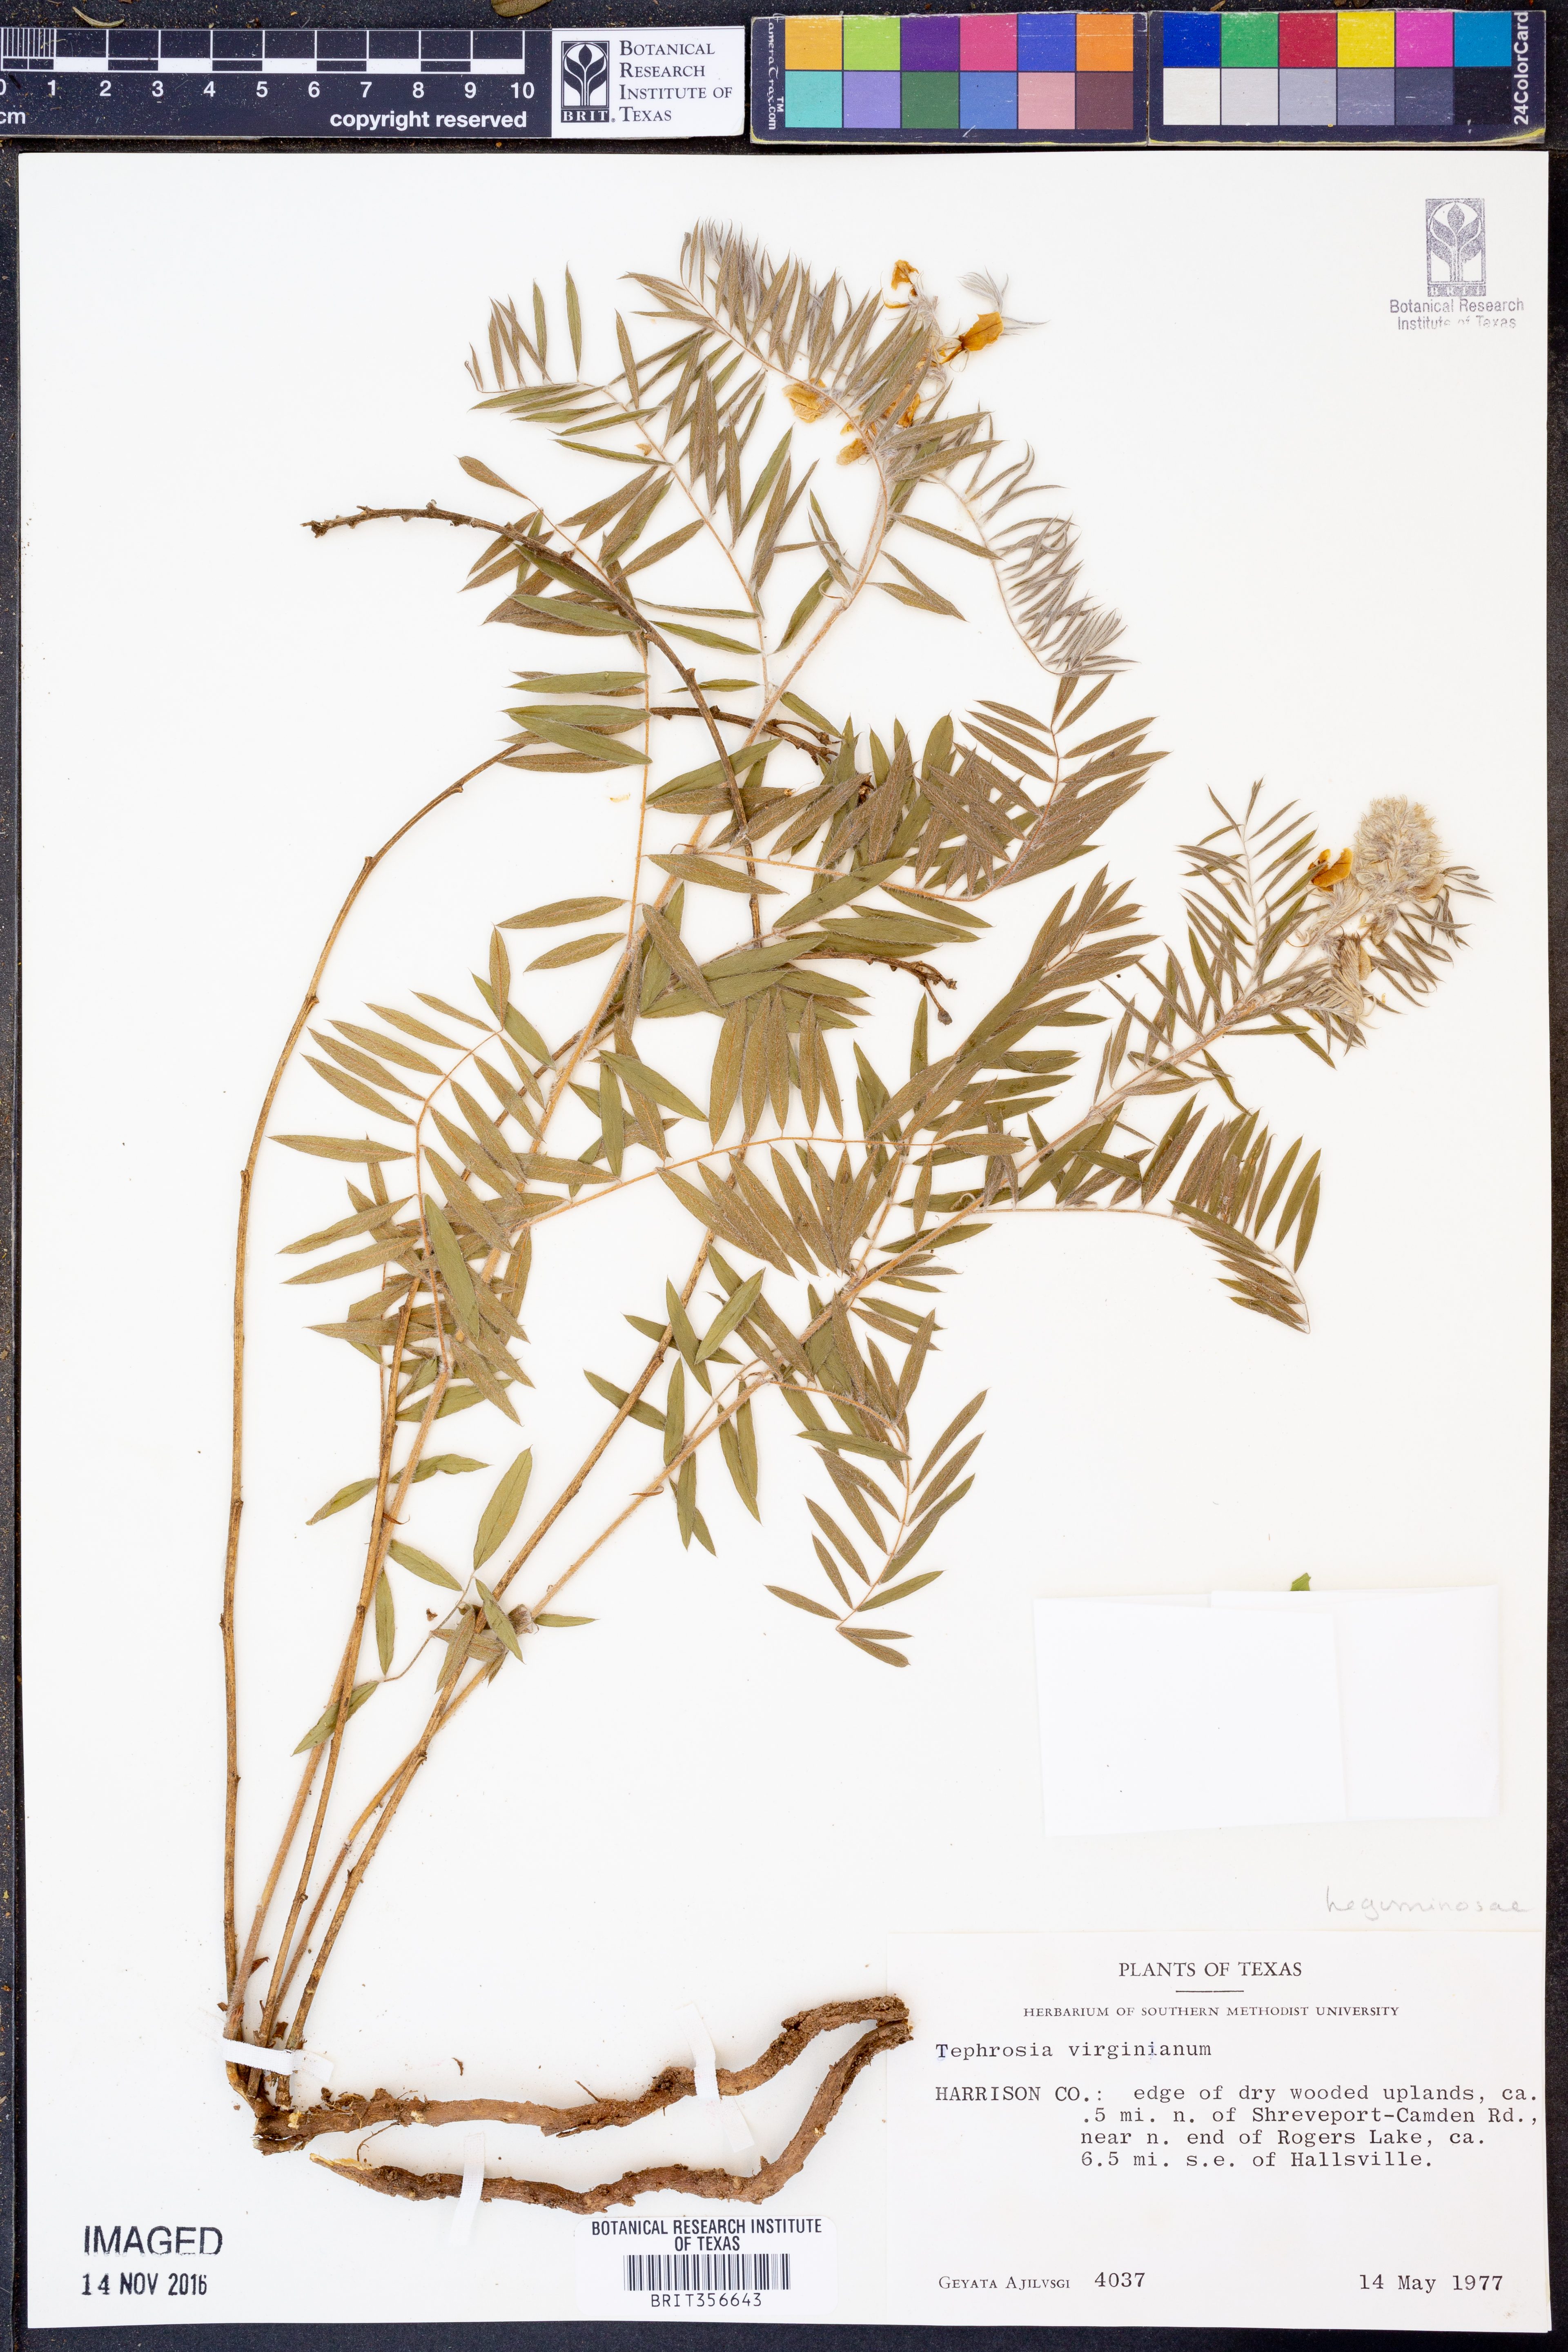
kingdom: Plantae
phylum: Tracheophyta
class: Magnoliopsida
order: Fabales
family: Fabaceae
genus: Tephrosia
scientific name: Tephrosia virginiana
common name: Rabbit-pea
